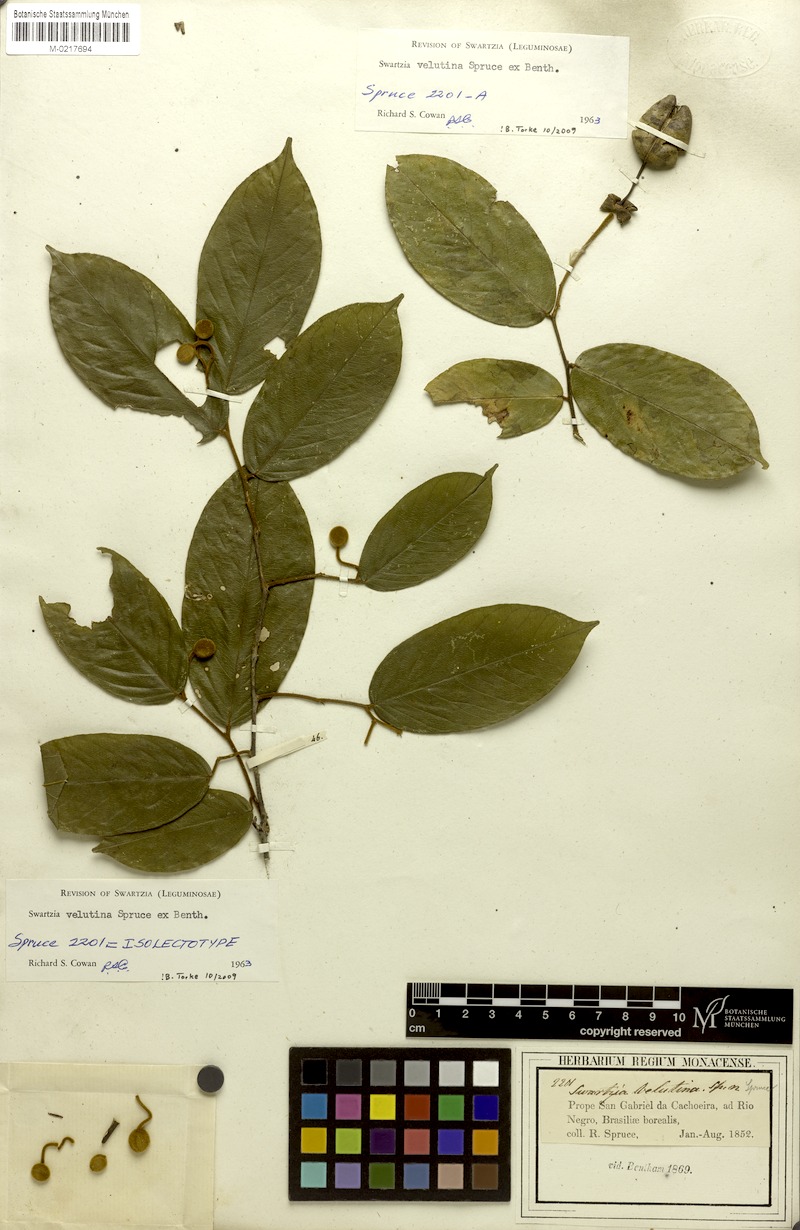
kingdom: Plantae
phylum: Tracheophyta
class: Magnoliopsida
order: Fabales
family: Fabaceae
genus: Swartzia
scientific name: Swartzia velutina
